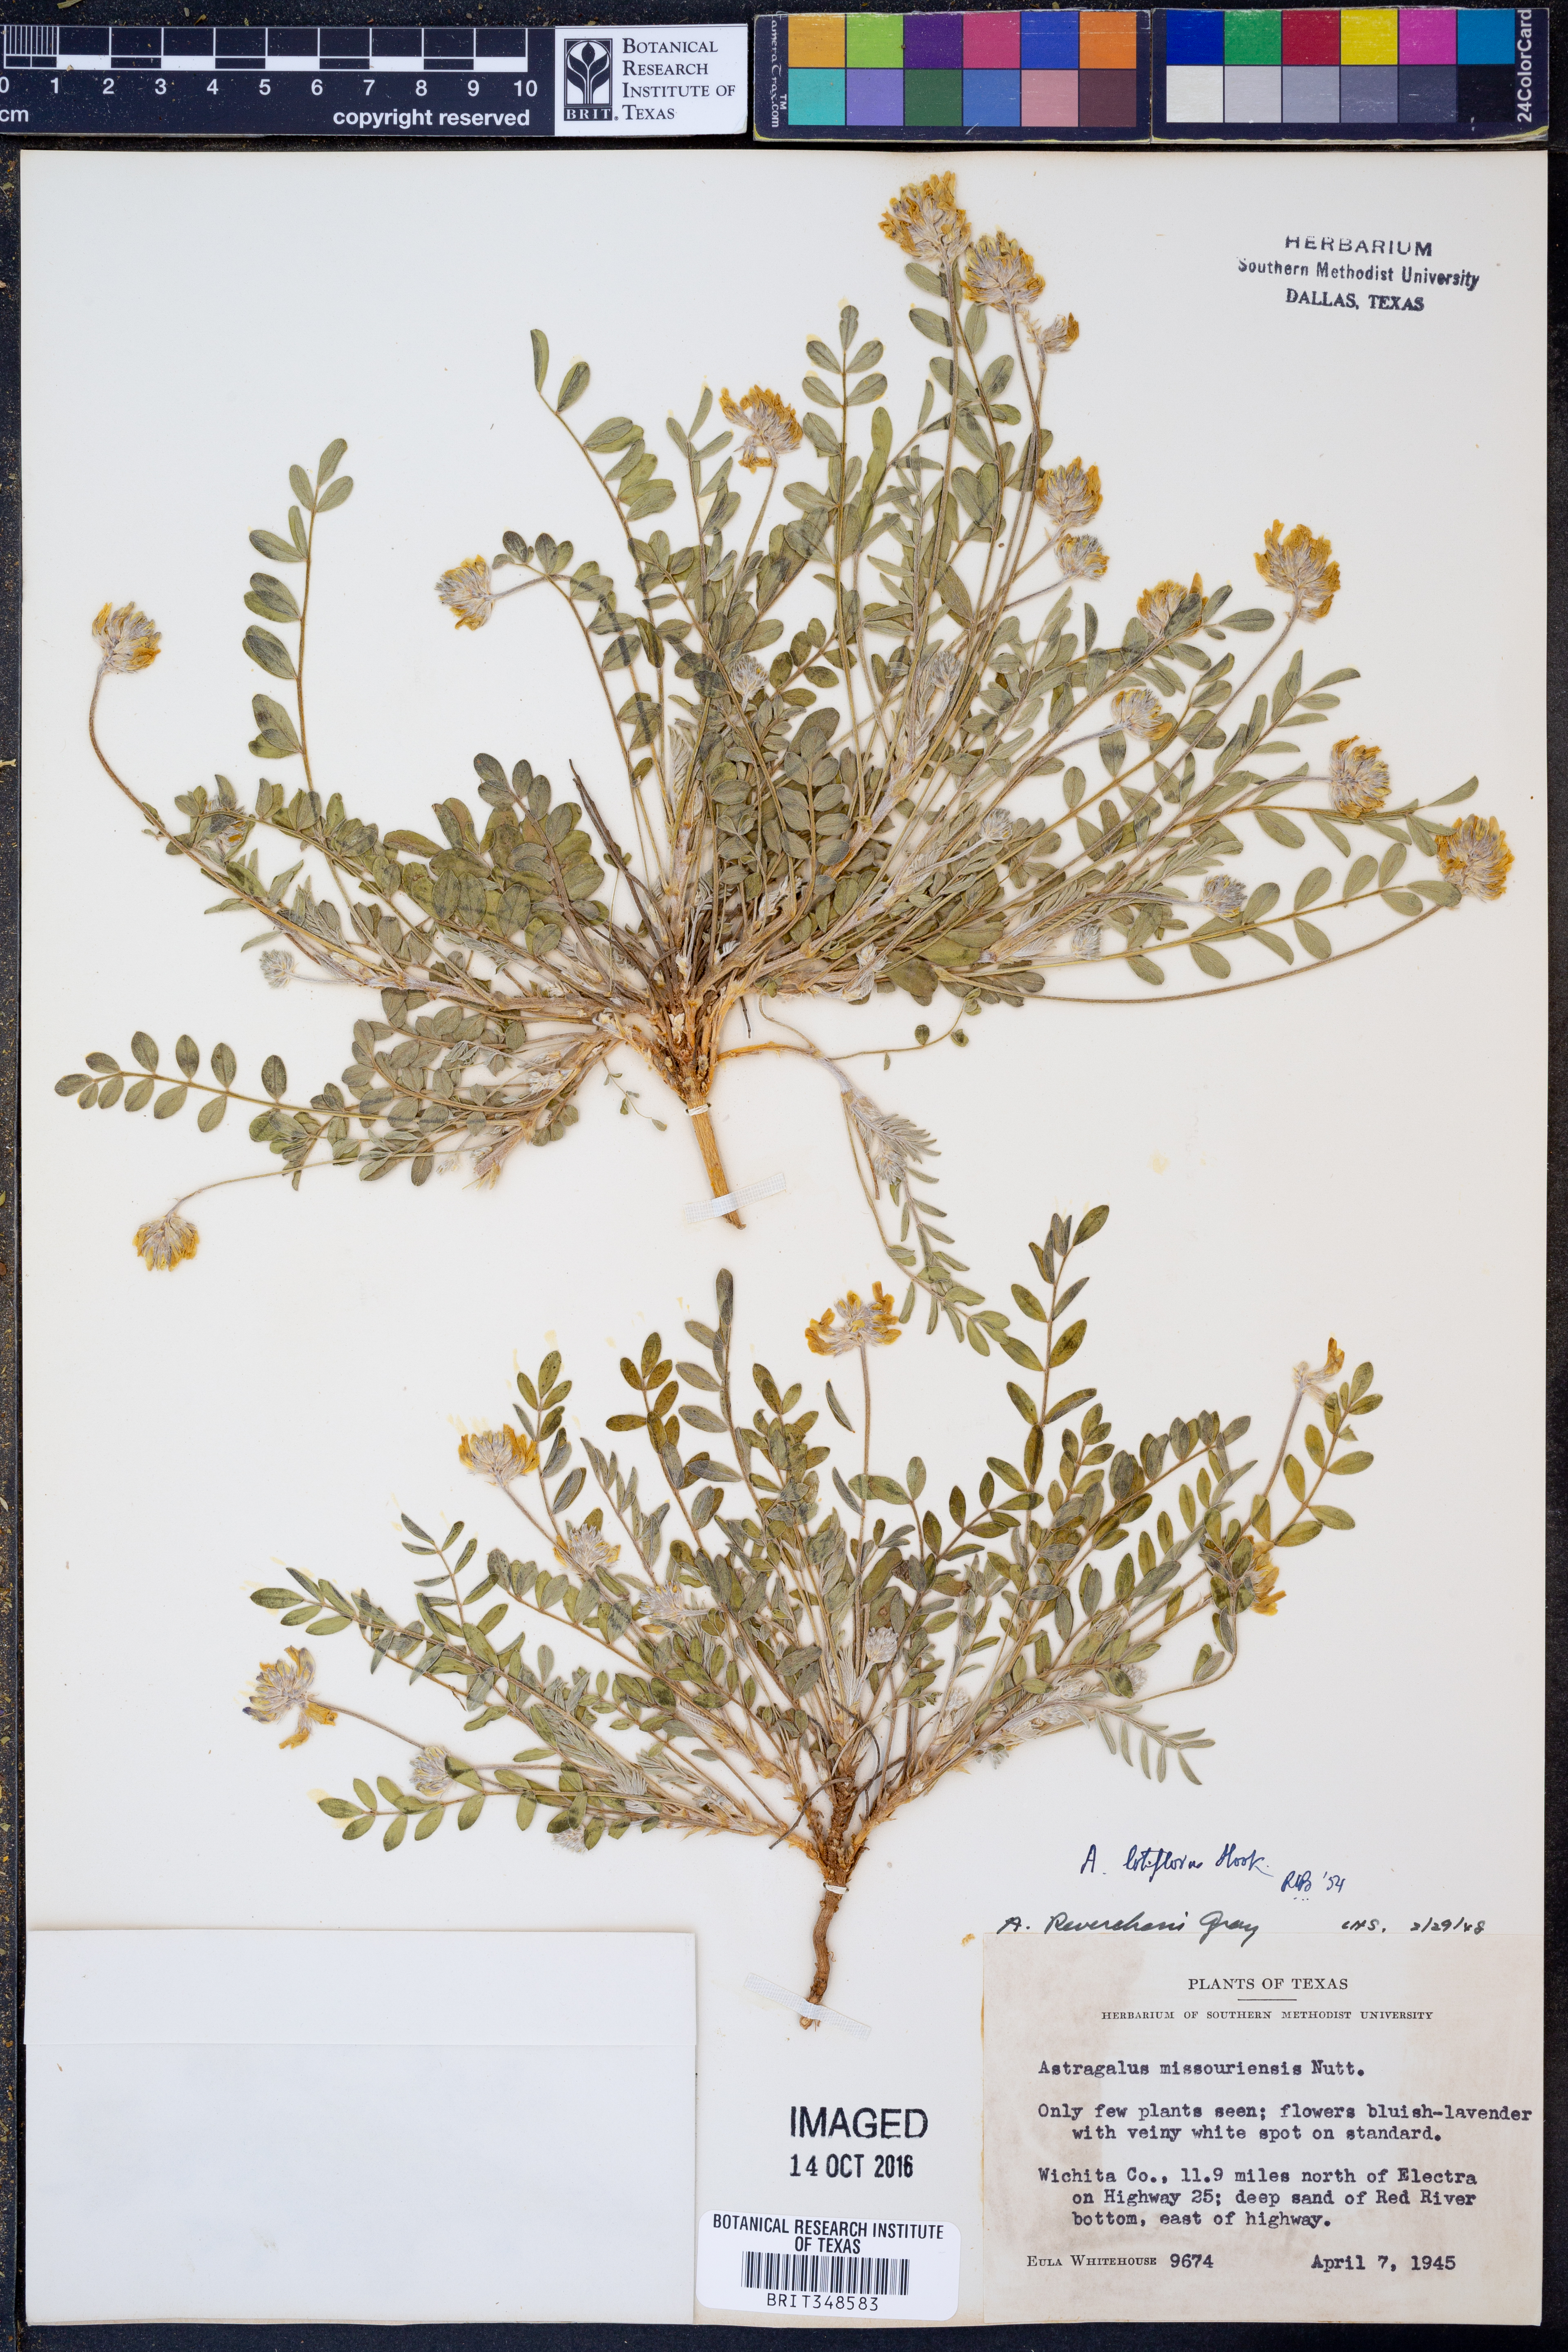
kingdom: Plantae
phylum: Tracheophyta
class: Magnoliopsida
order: Fabales
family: Fabaceae
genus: Astragalus
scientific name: Astragalus lotiflorus
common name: Lotus milk-vetch
